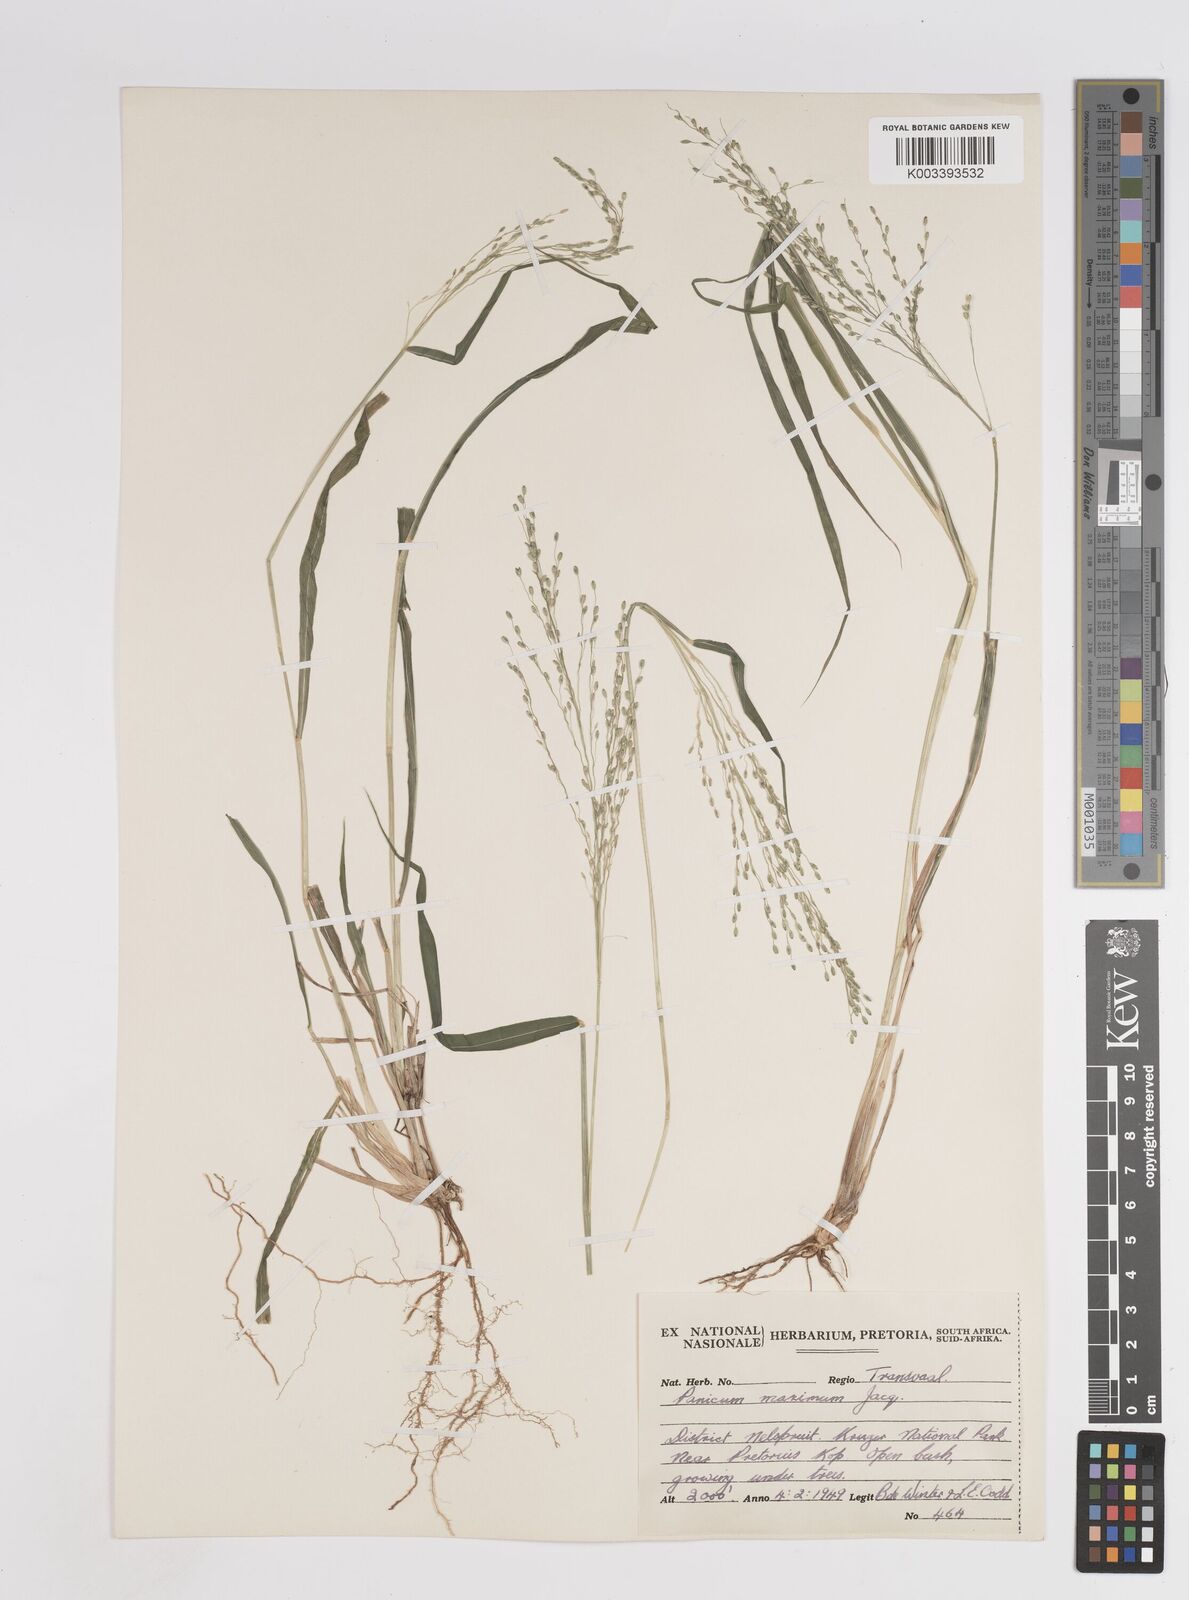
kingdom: Plantae
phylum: Tracheophyta
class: Liliopsida
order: Poales
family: Poaceae
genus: Megathyrsus
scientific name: Megathyrsus maximus
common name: Guineagrass
